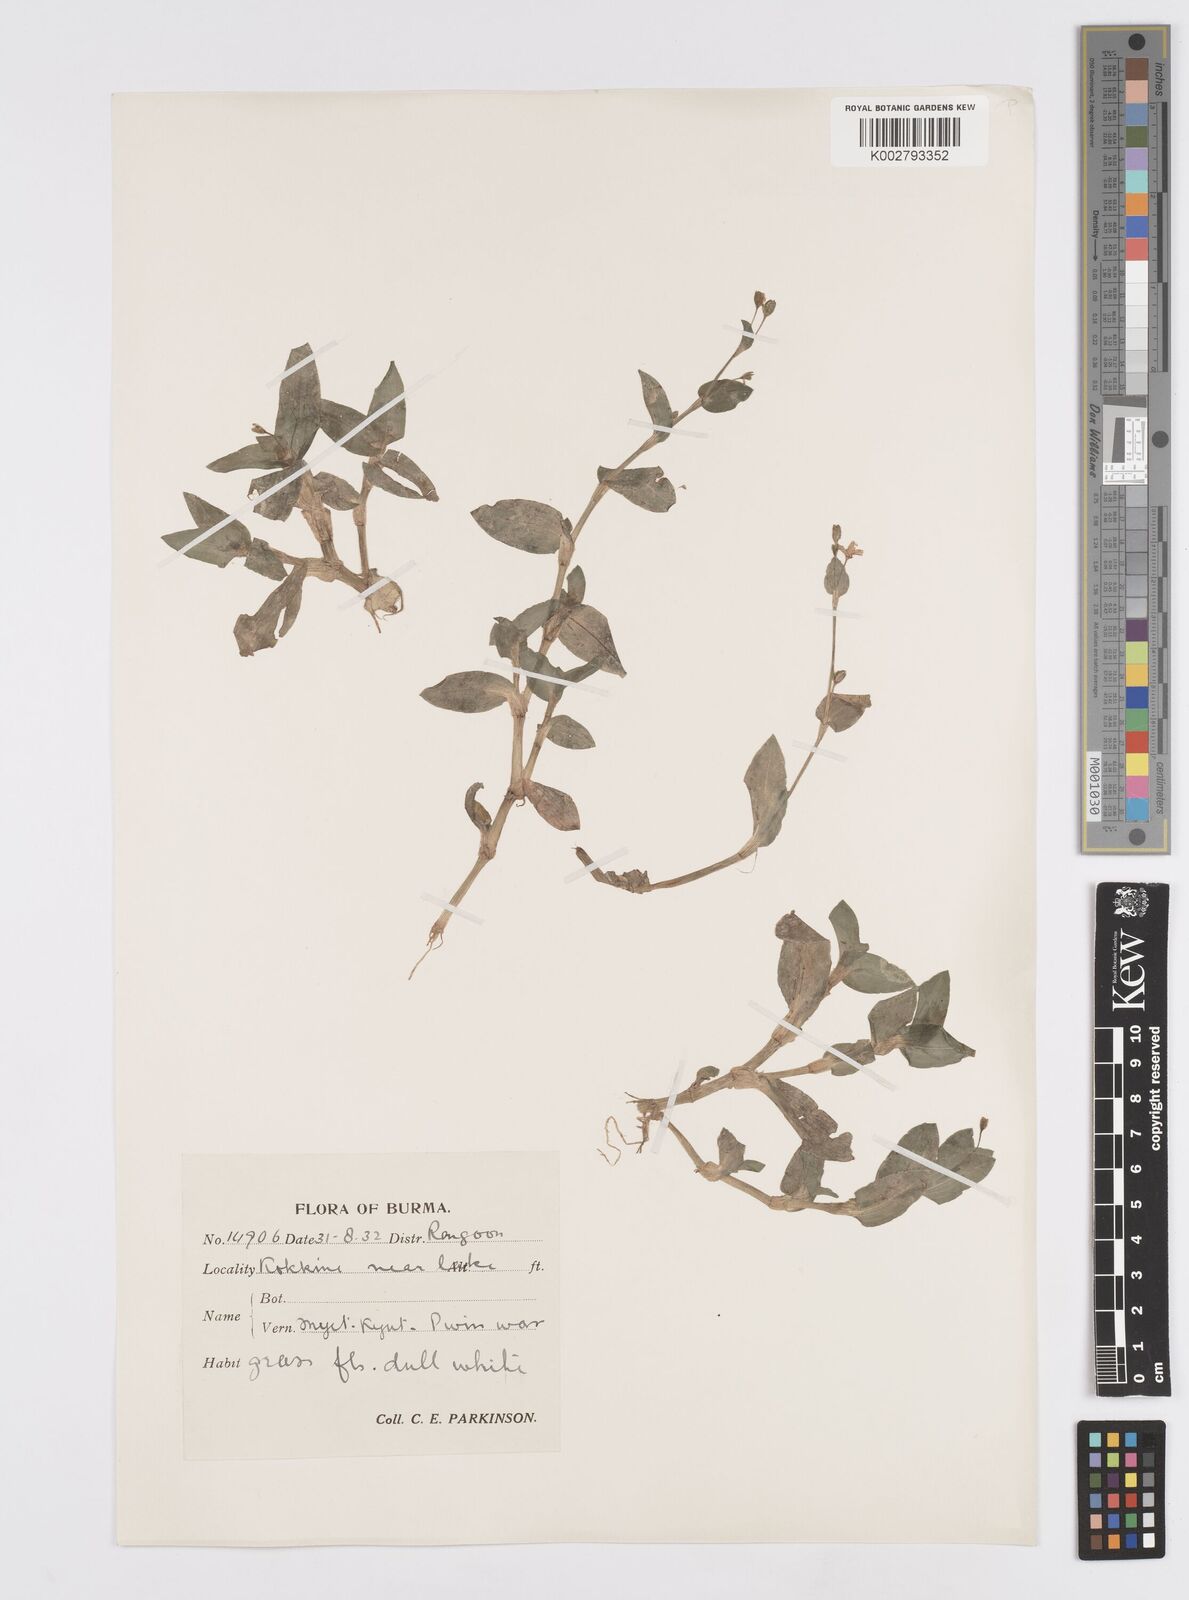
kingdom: Plantae
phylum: Tracheophyta
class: Liliopsida
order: Commelinales
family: Commelinaceae
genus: Murdannia
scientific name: Murdannia
